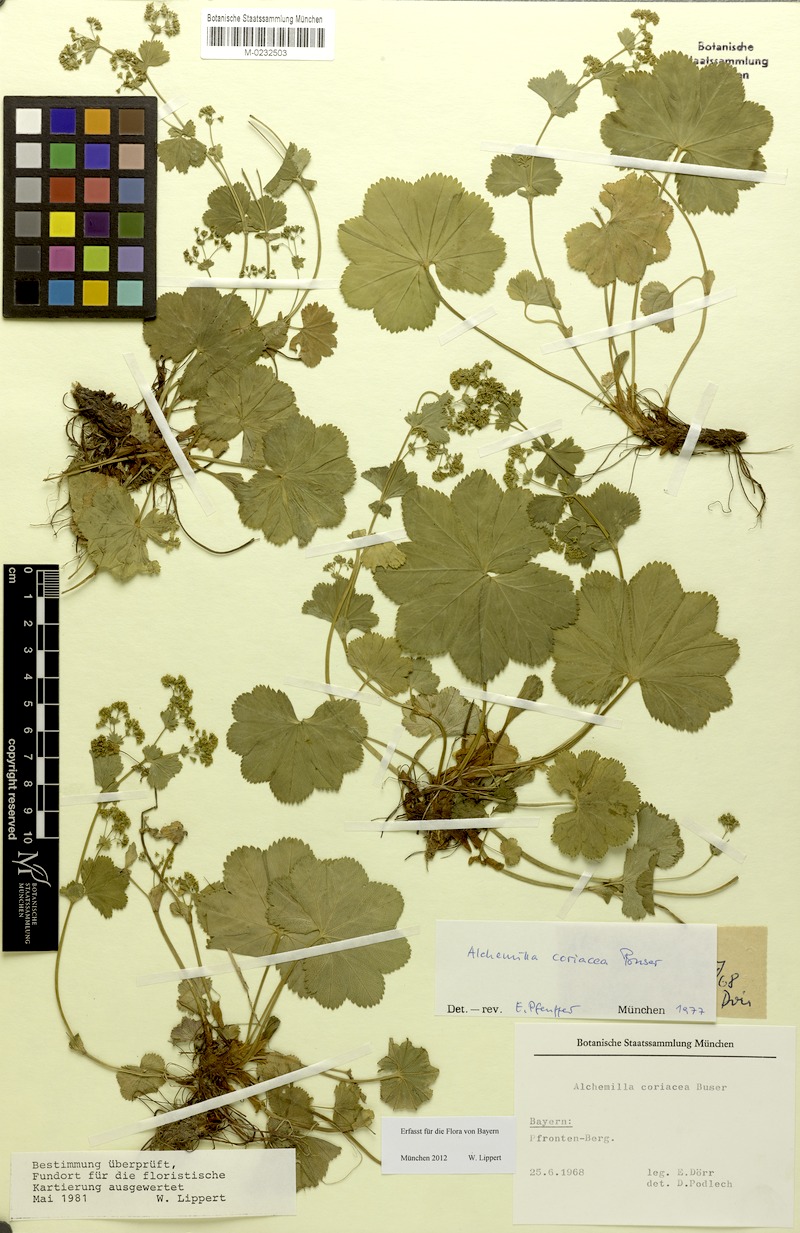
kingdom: Plantae
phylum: Tracheophyta
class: Magnoliopsida
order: Rosales
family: Rosaceae
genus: Alchemilla
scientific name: Alchemilla coriacea
